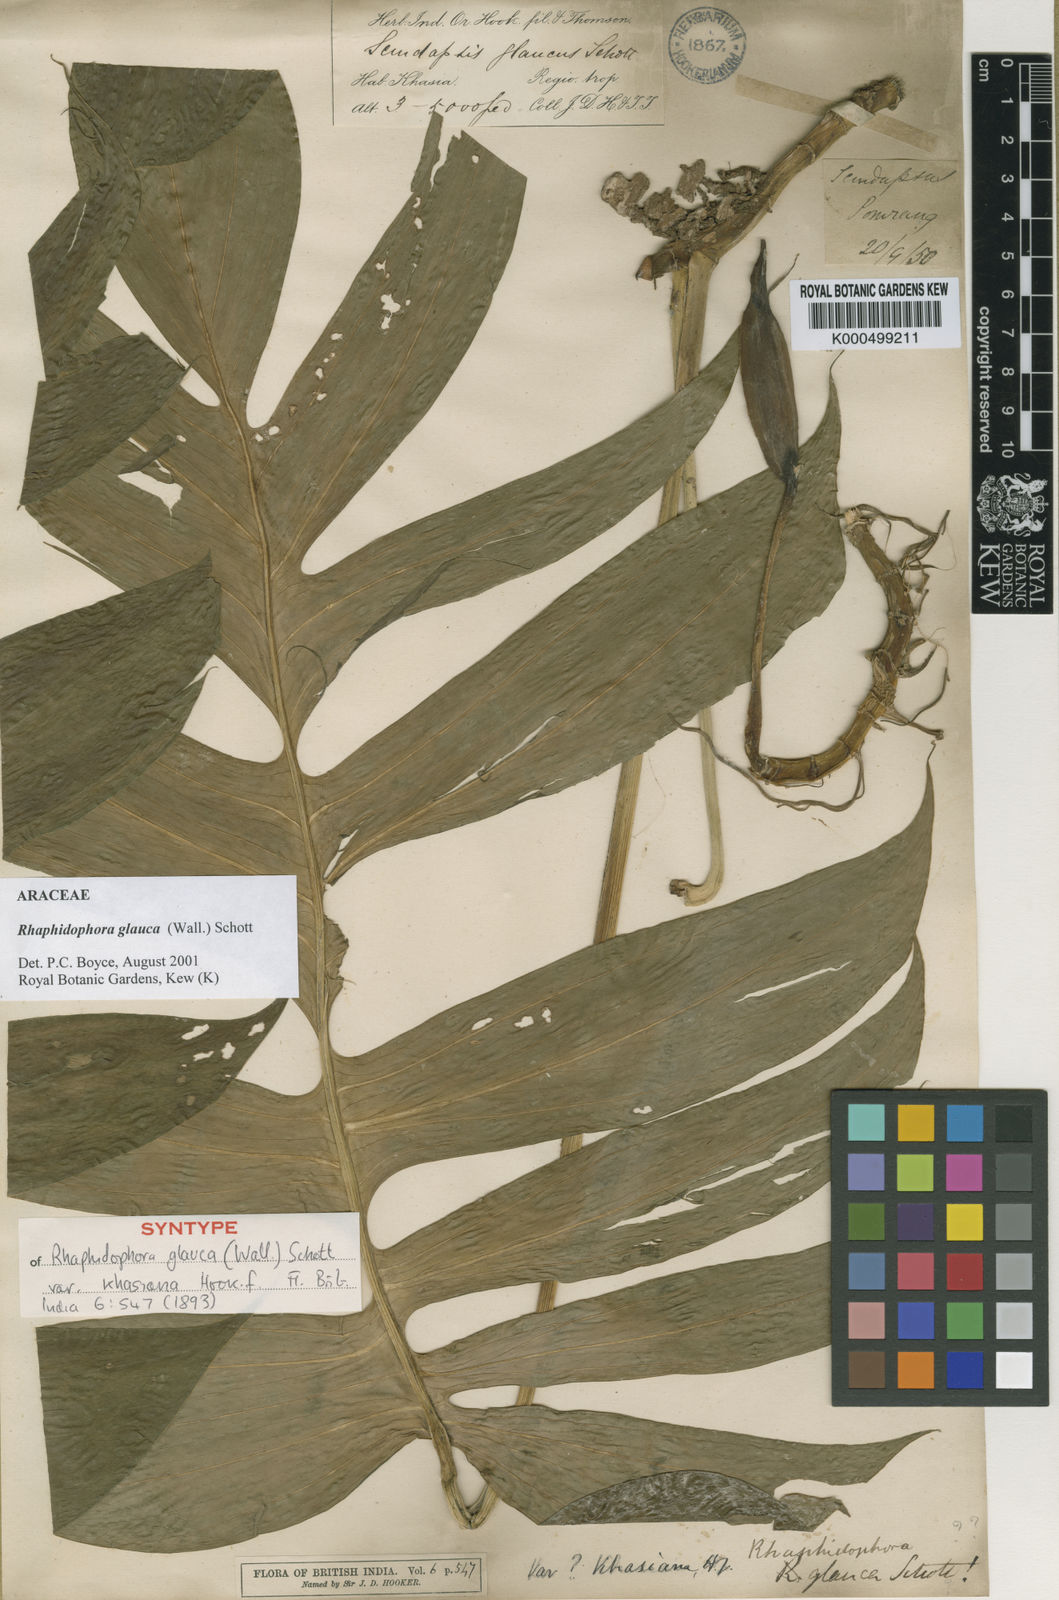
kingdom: Plantae
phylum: Tracheophyta
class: Liliopsida
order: Alismatales
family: Araceae
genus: Rhaphidophora
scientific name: Rhaphidophora glauca
